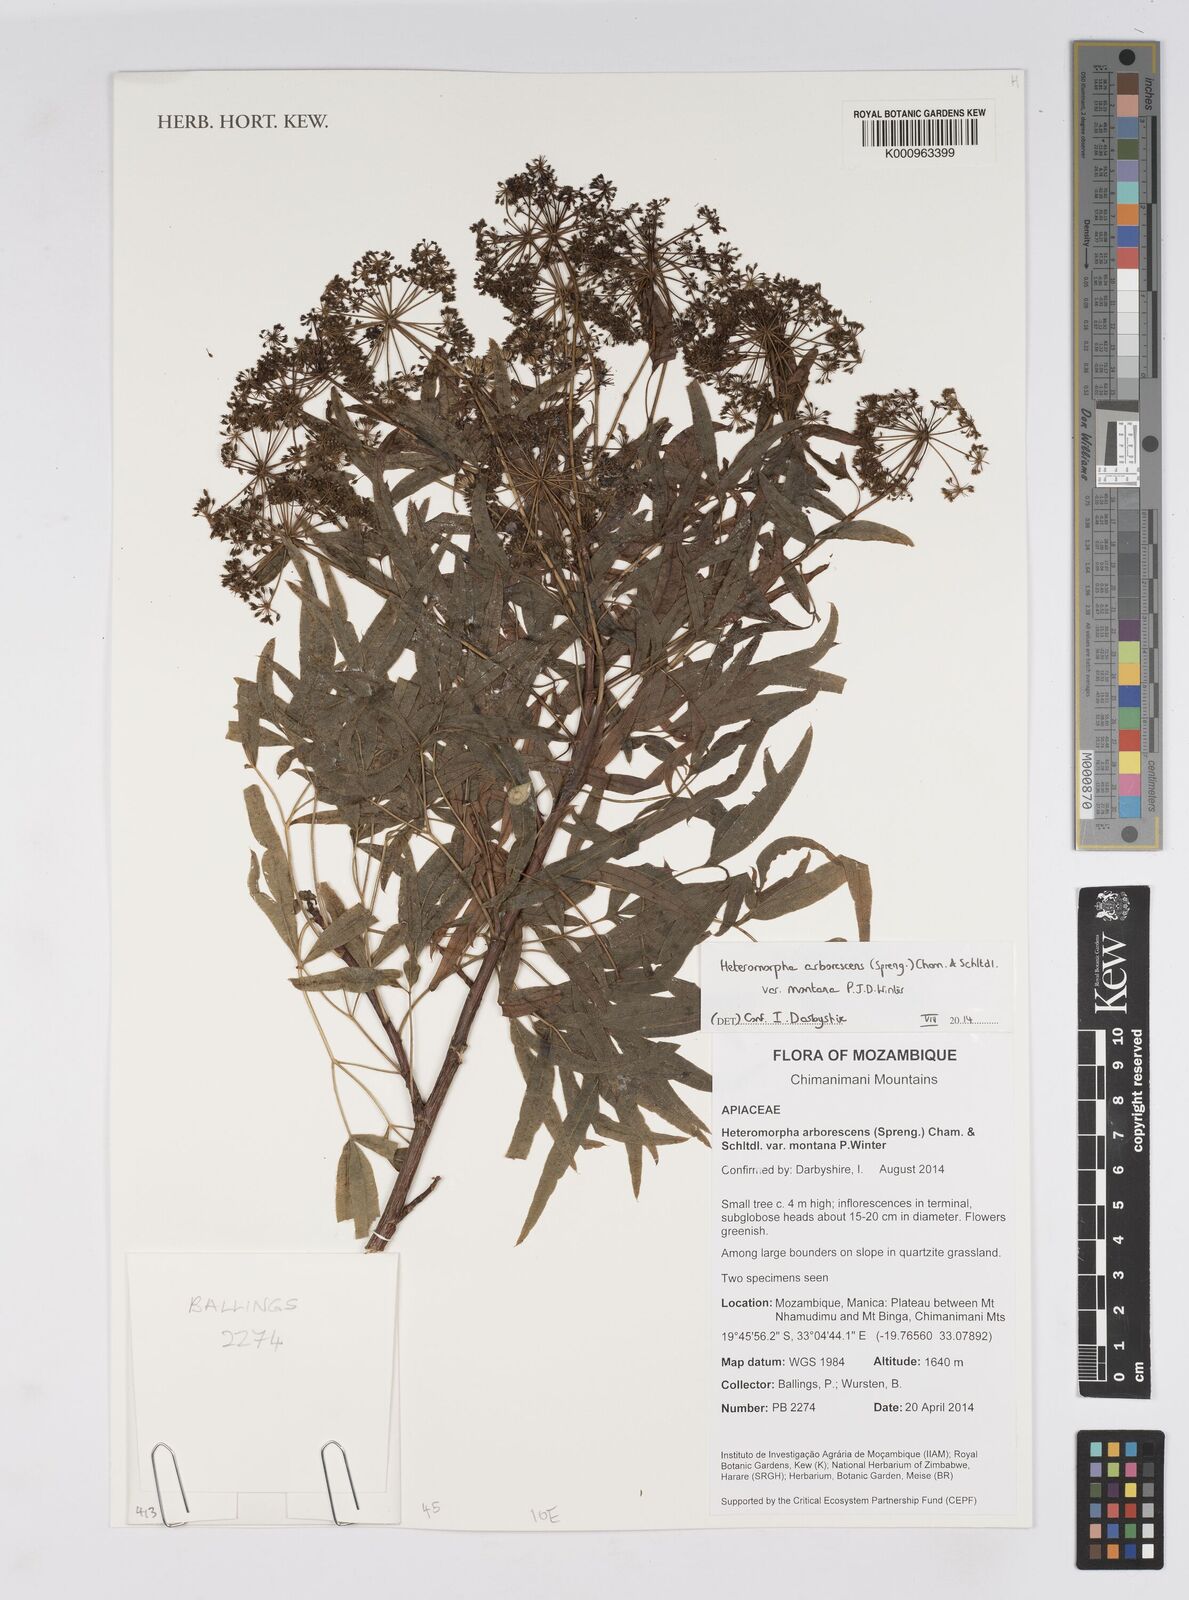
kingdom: Plantae
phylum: Tracheophyta
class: Magnoliopsida
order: Apiales
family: Apiaceae
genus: Heteromorpha
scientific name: Heteromorpha montana
